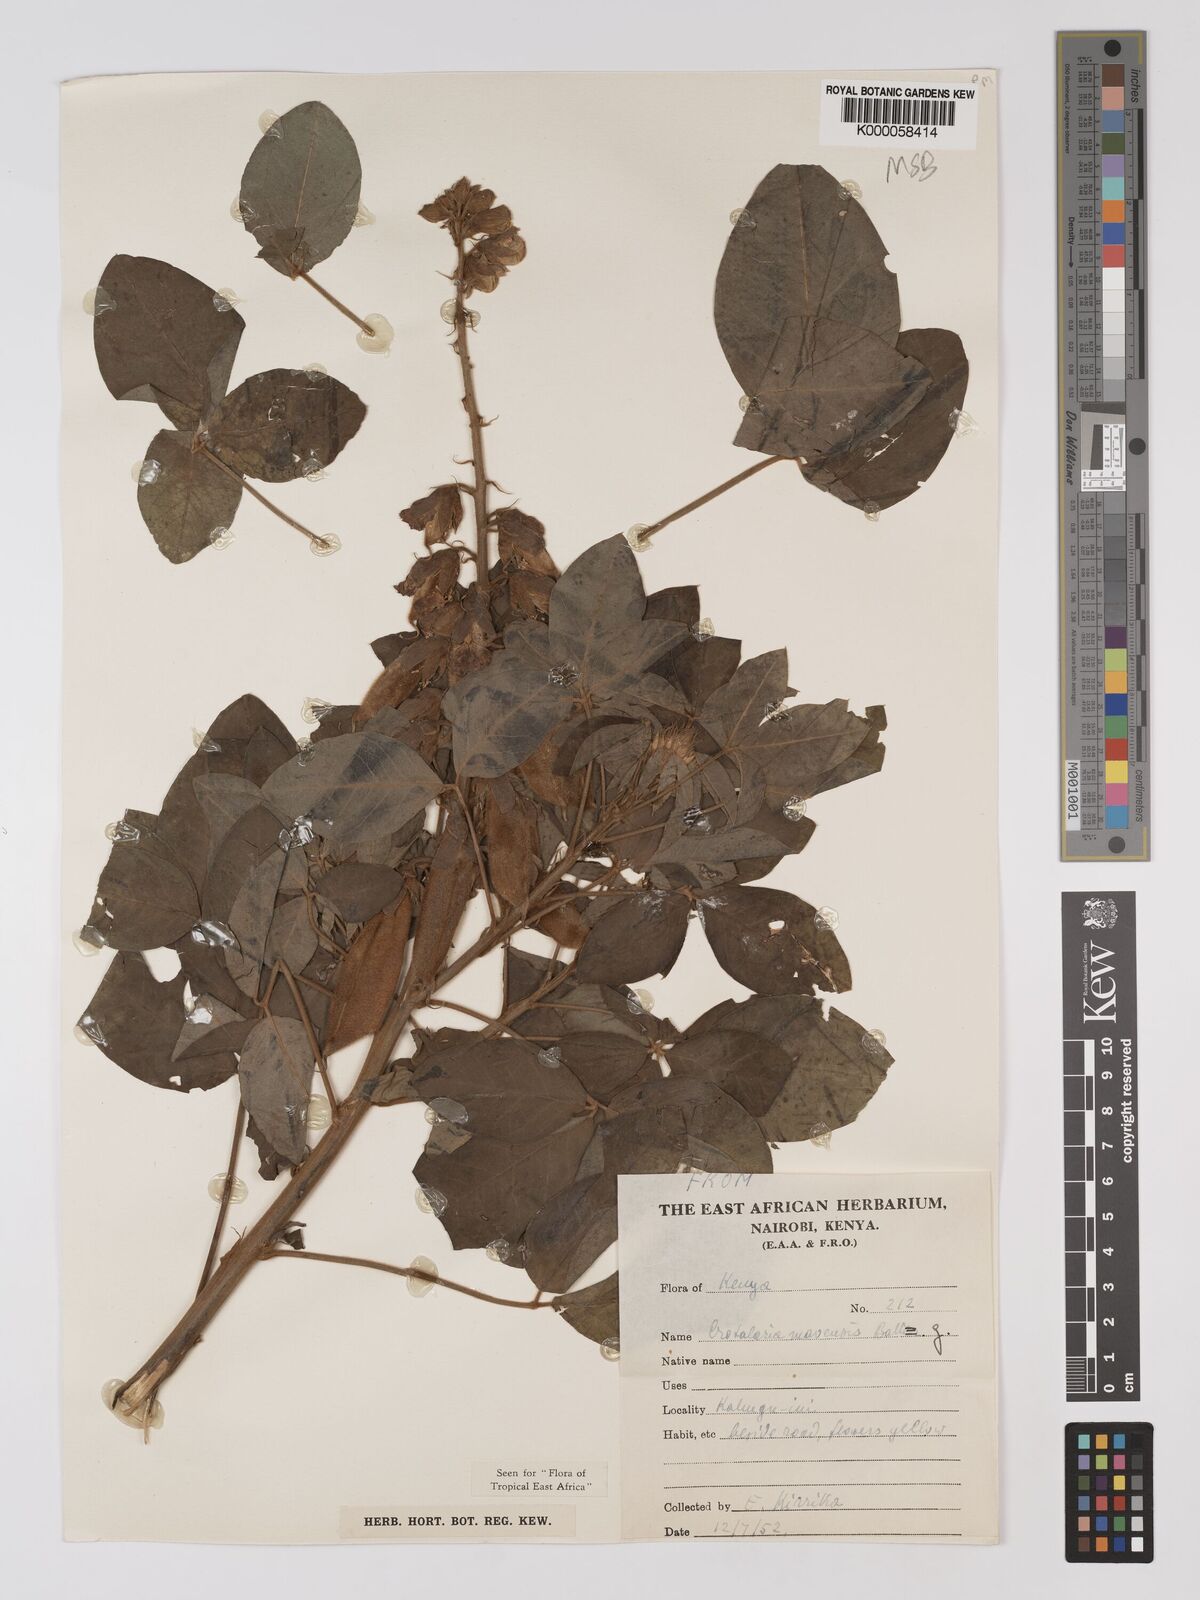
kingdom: Plantae
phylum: Tracheophyta
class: Magnoliopsida
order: Fabales
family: Fabaceae
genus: Crotalaria
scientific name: Crotalaria mauensis
